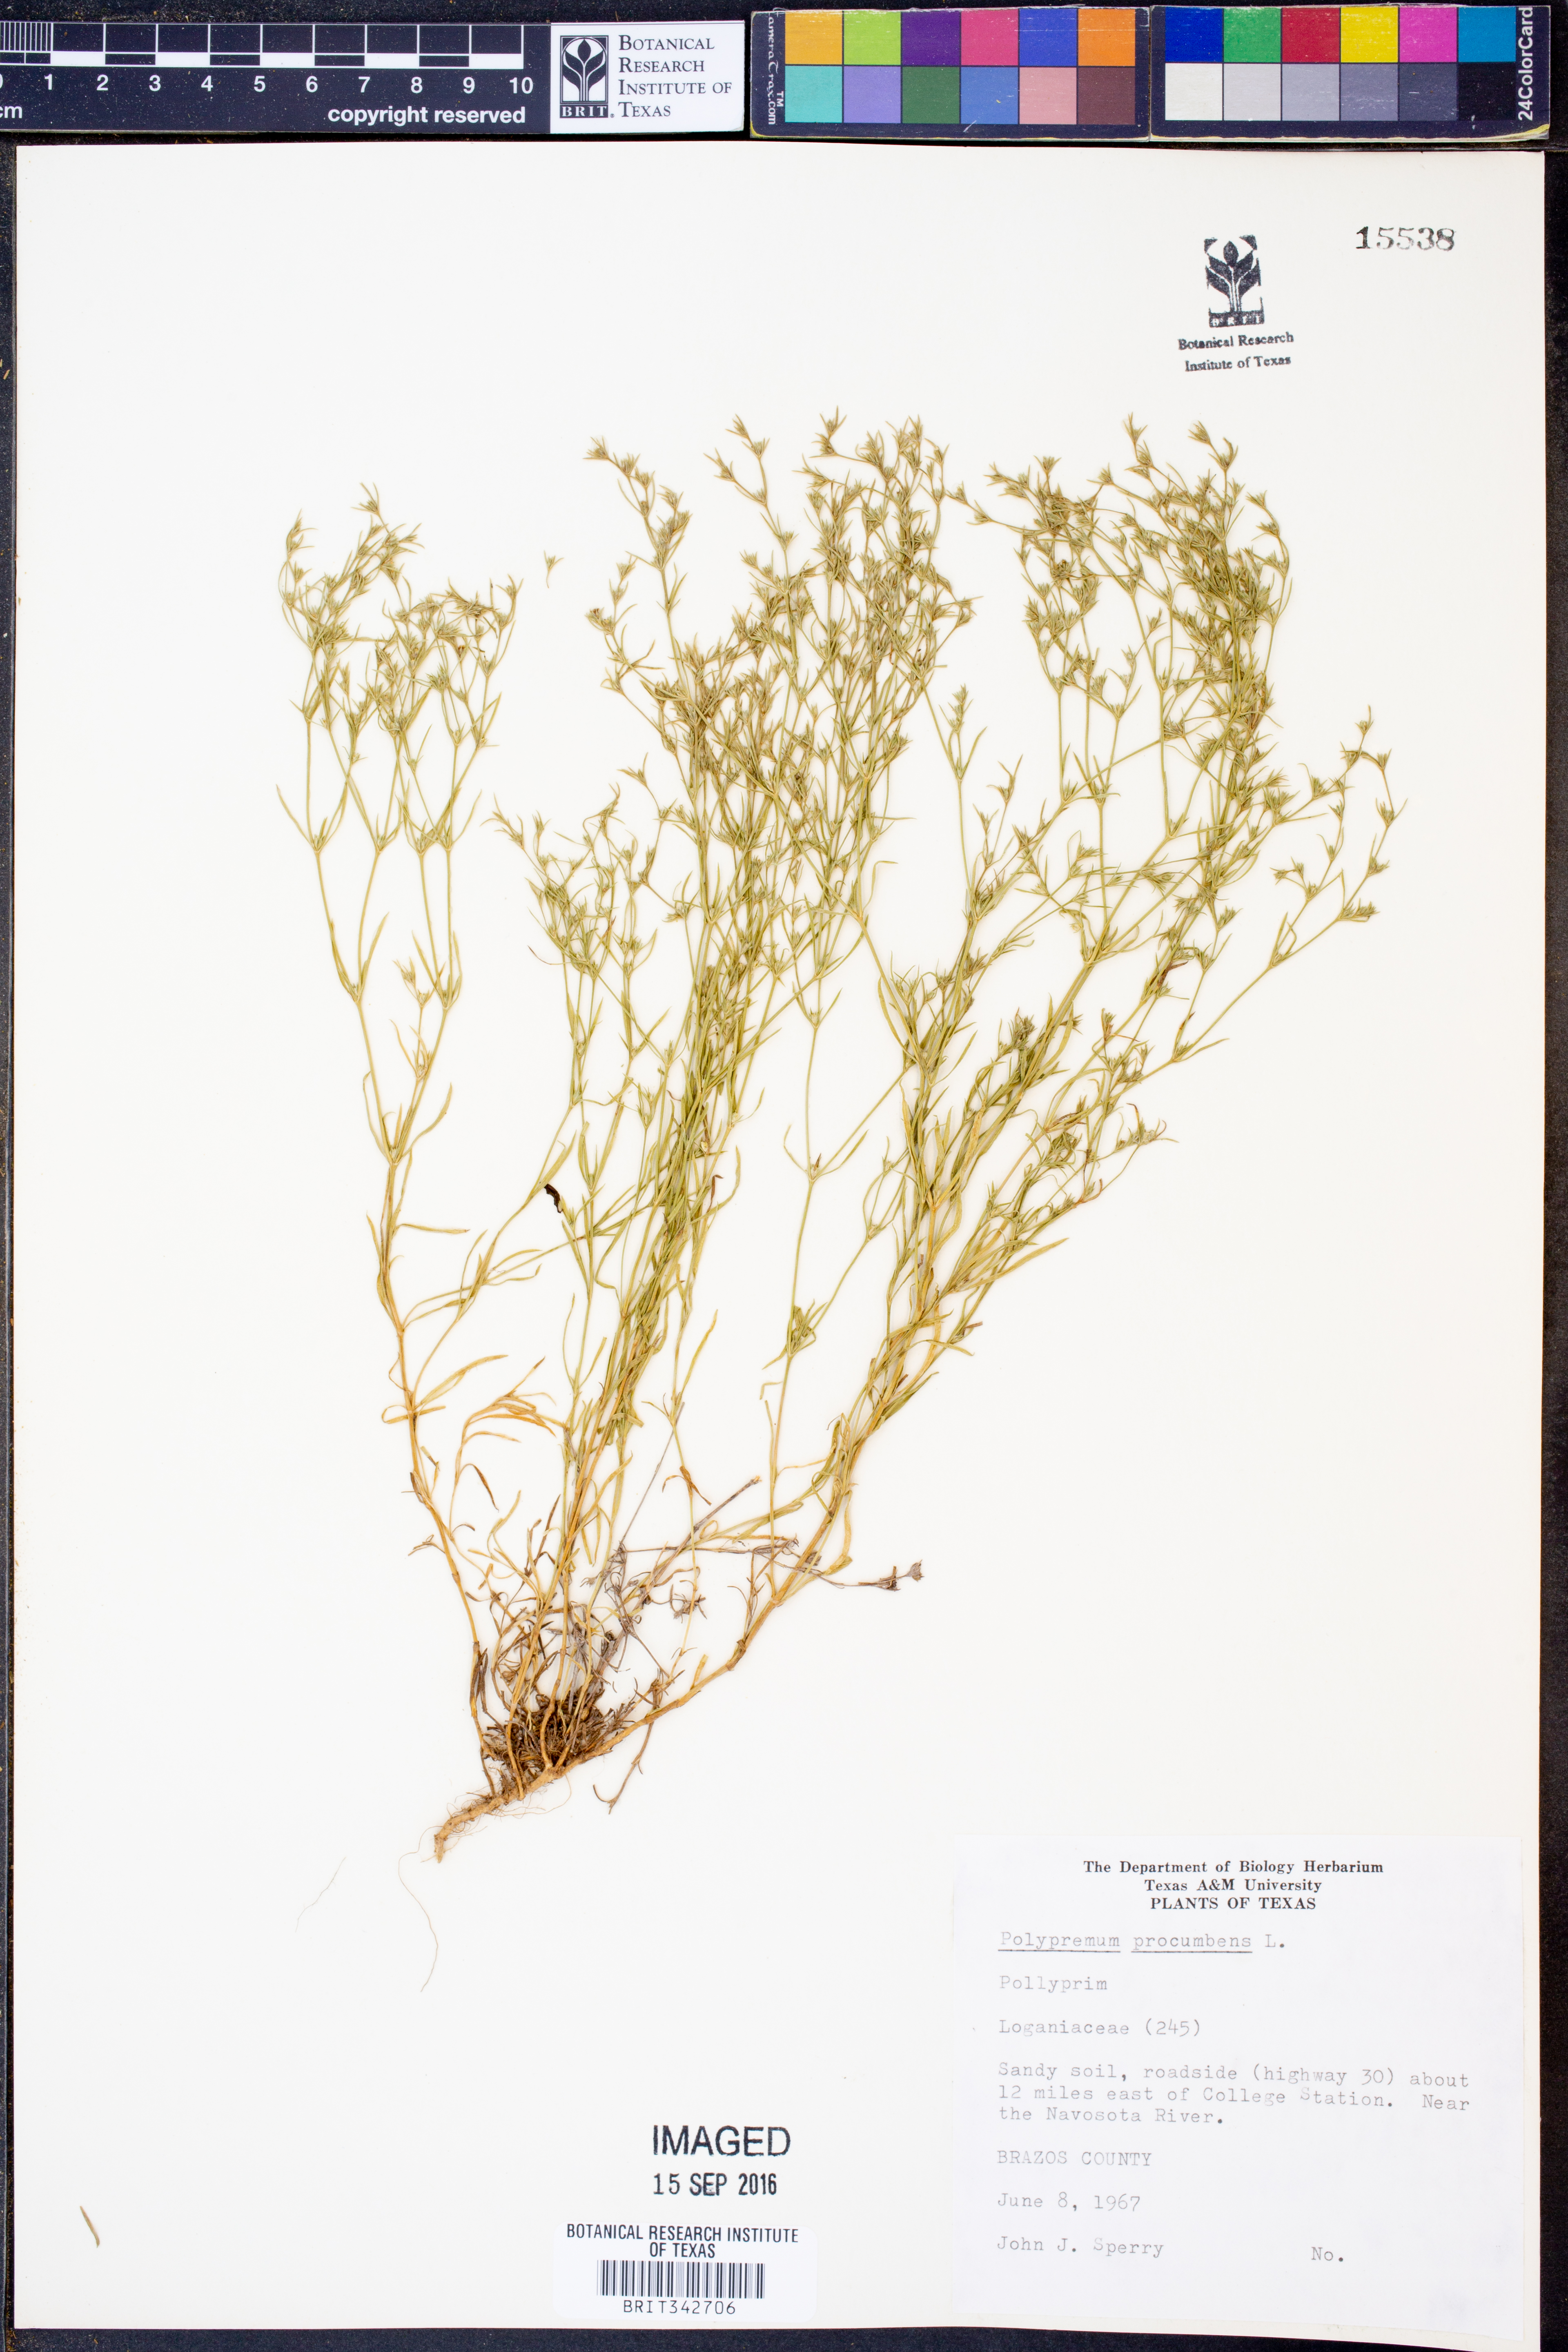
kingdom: Plantae
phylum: Tracheophyta
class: Magnoliopsida
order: Lamiales
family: Tetrachondraceae
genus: Polypremum
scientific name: Polypremum procumbens
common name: Juniper-leaf
